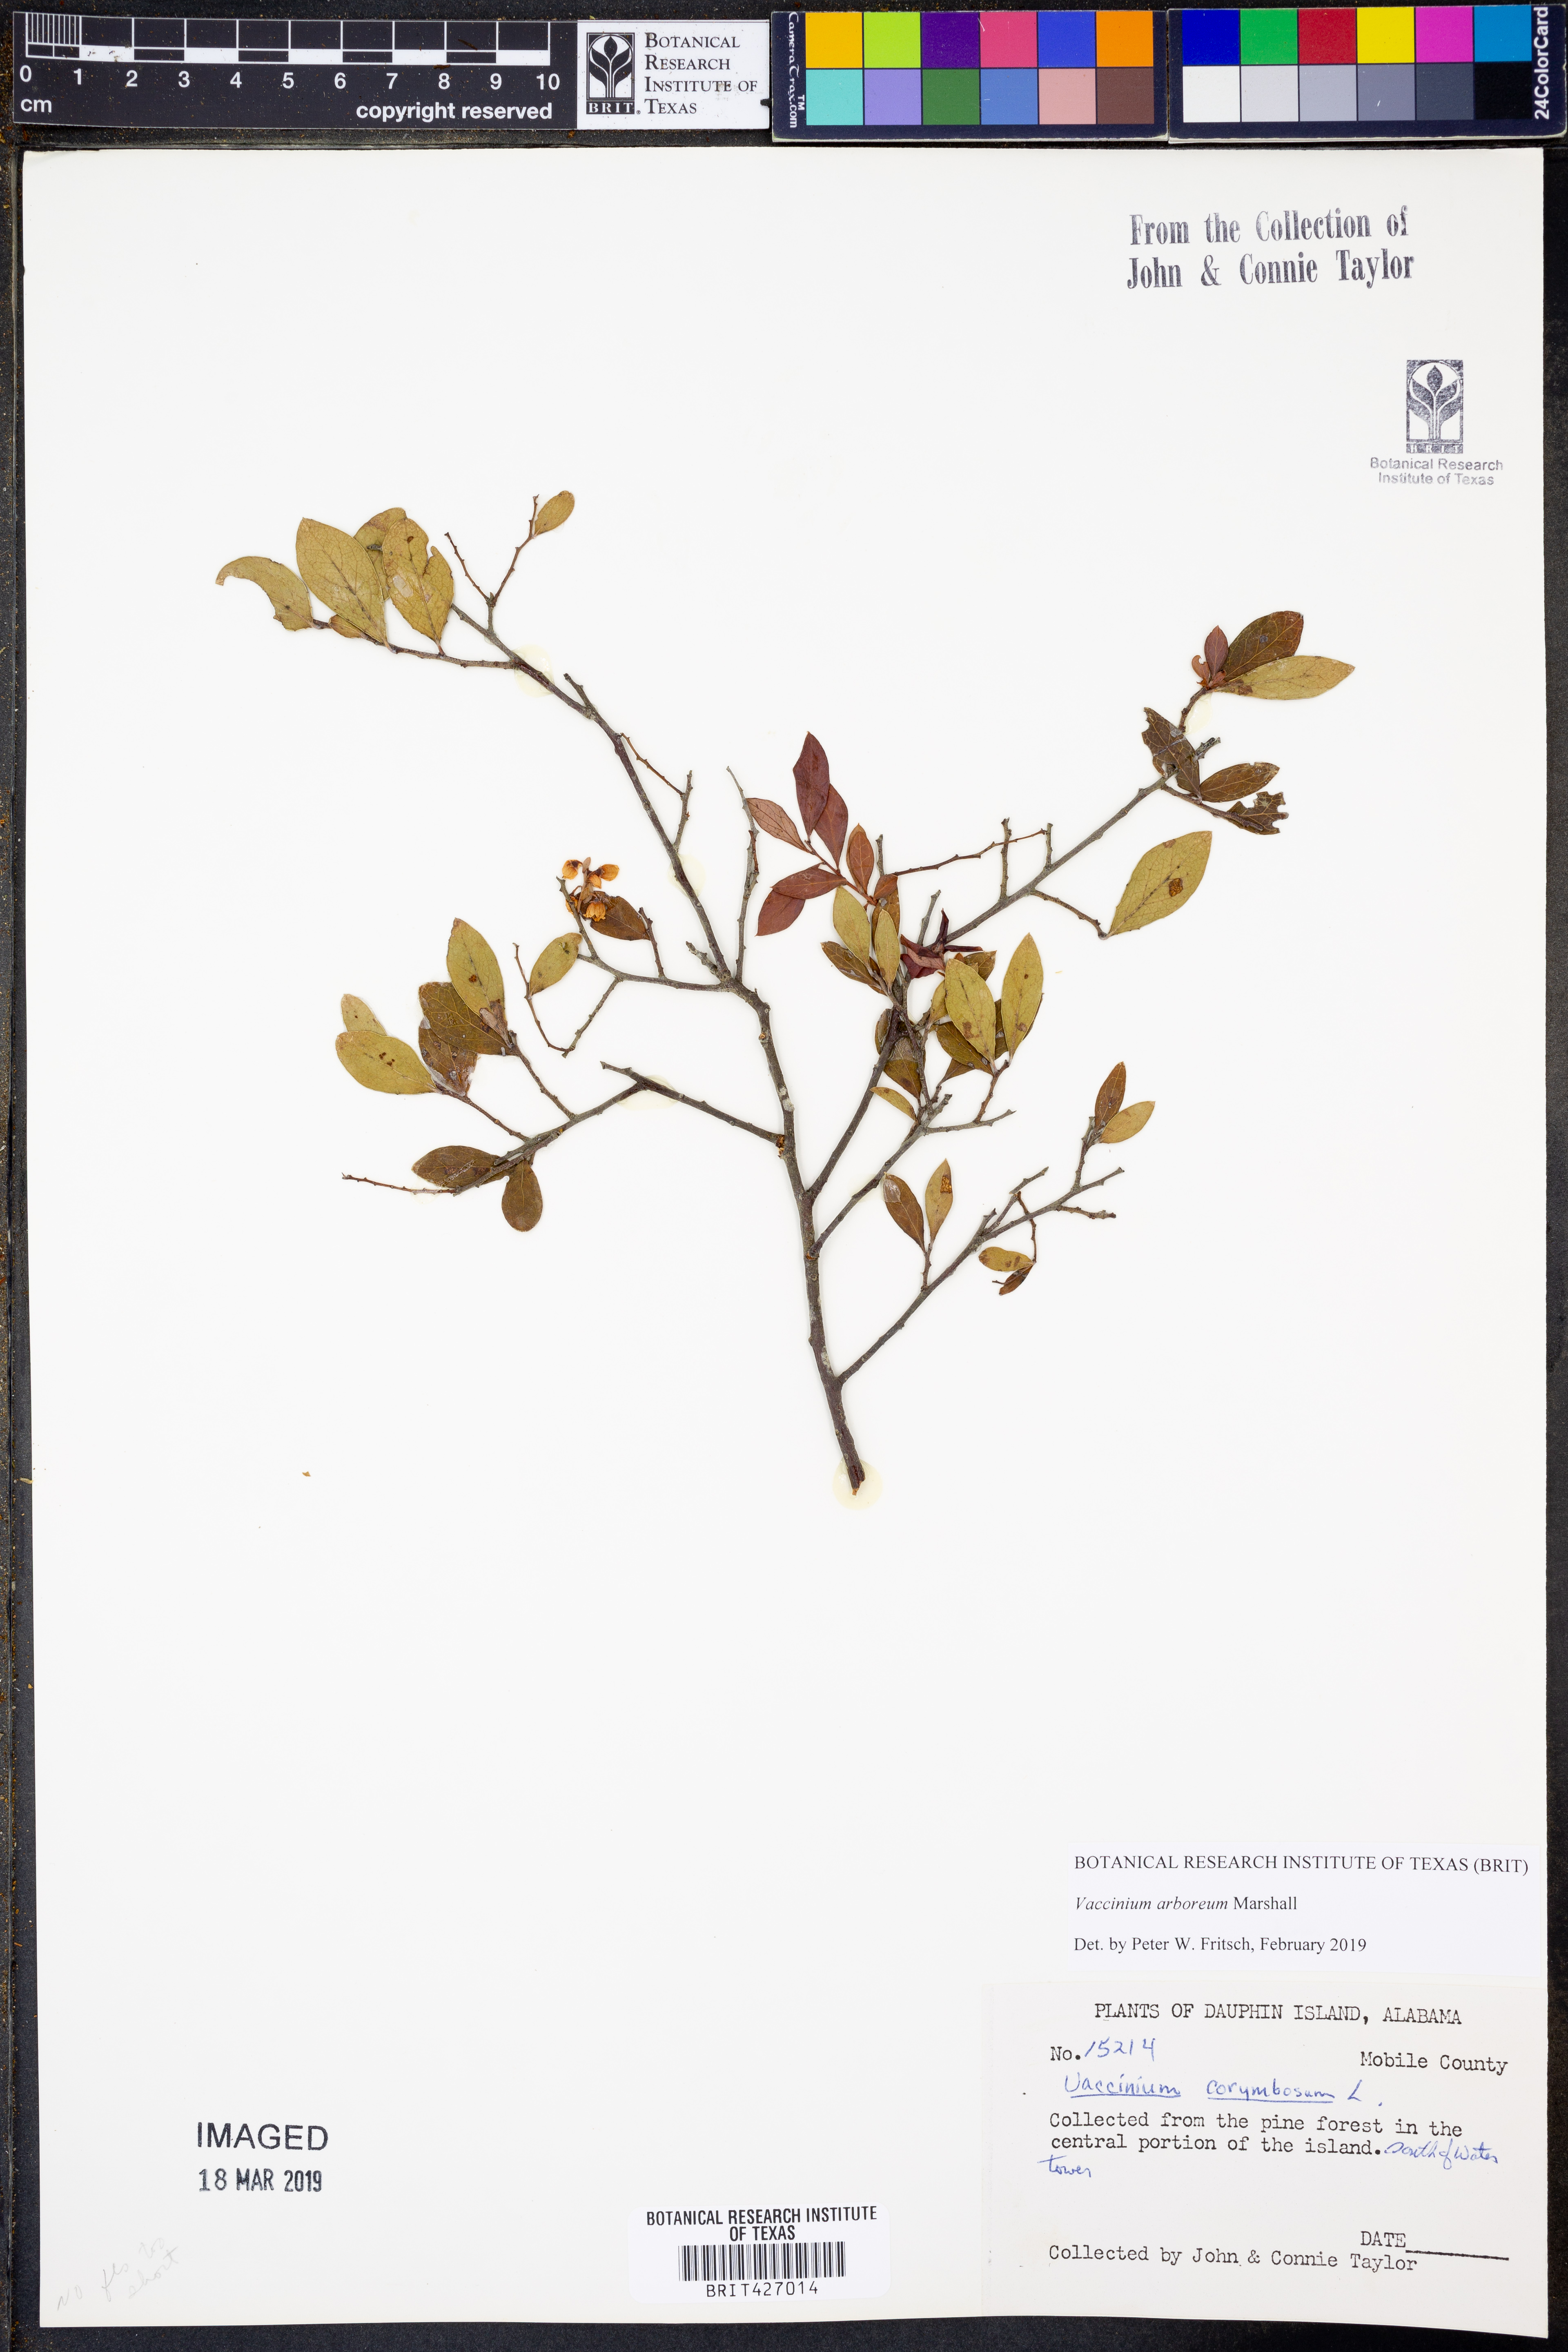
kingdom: Plantae
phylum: Tracheophyta
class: Magnoliopsida
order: Ericales
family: Ericaceae
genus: Vaccinium
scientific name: Vaccinium arboreum
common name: Farkleberry
